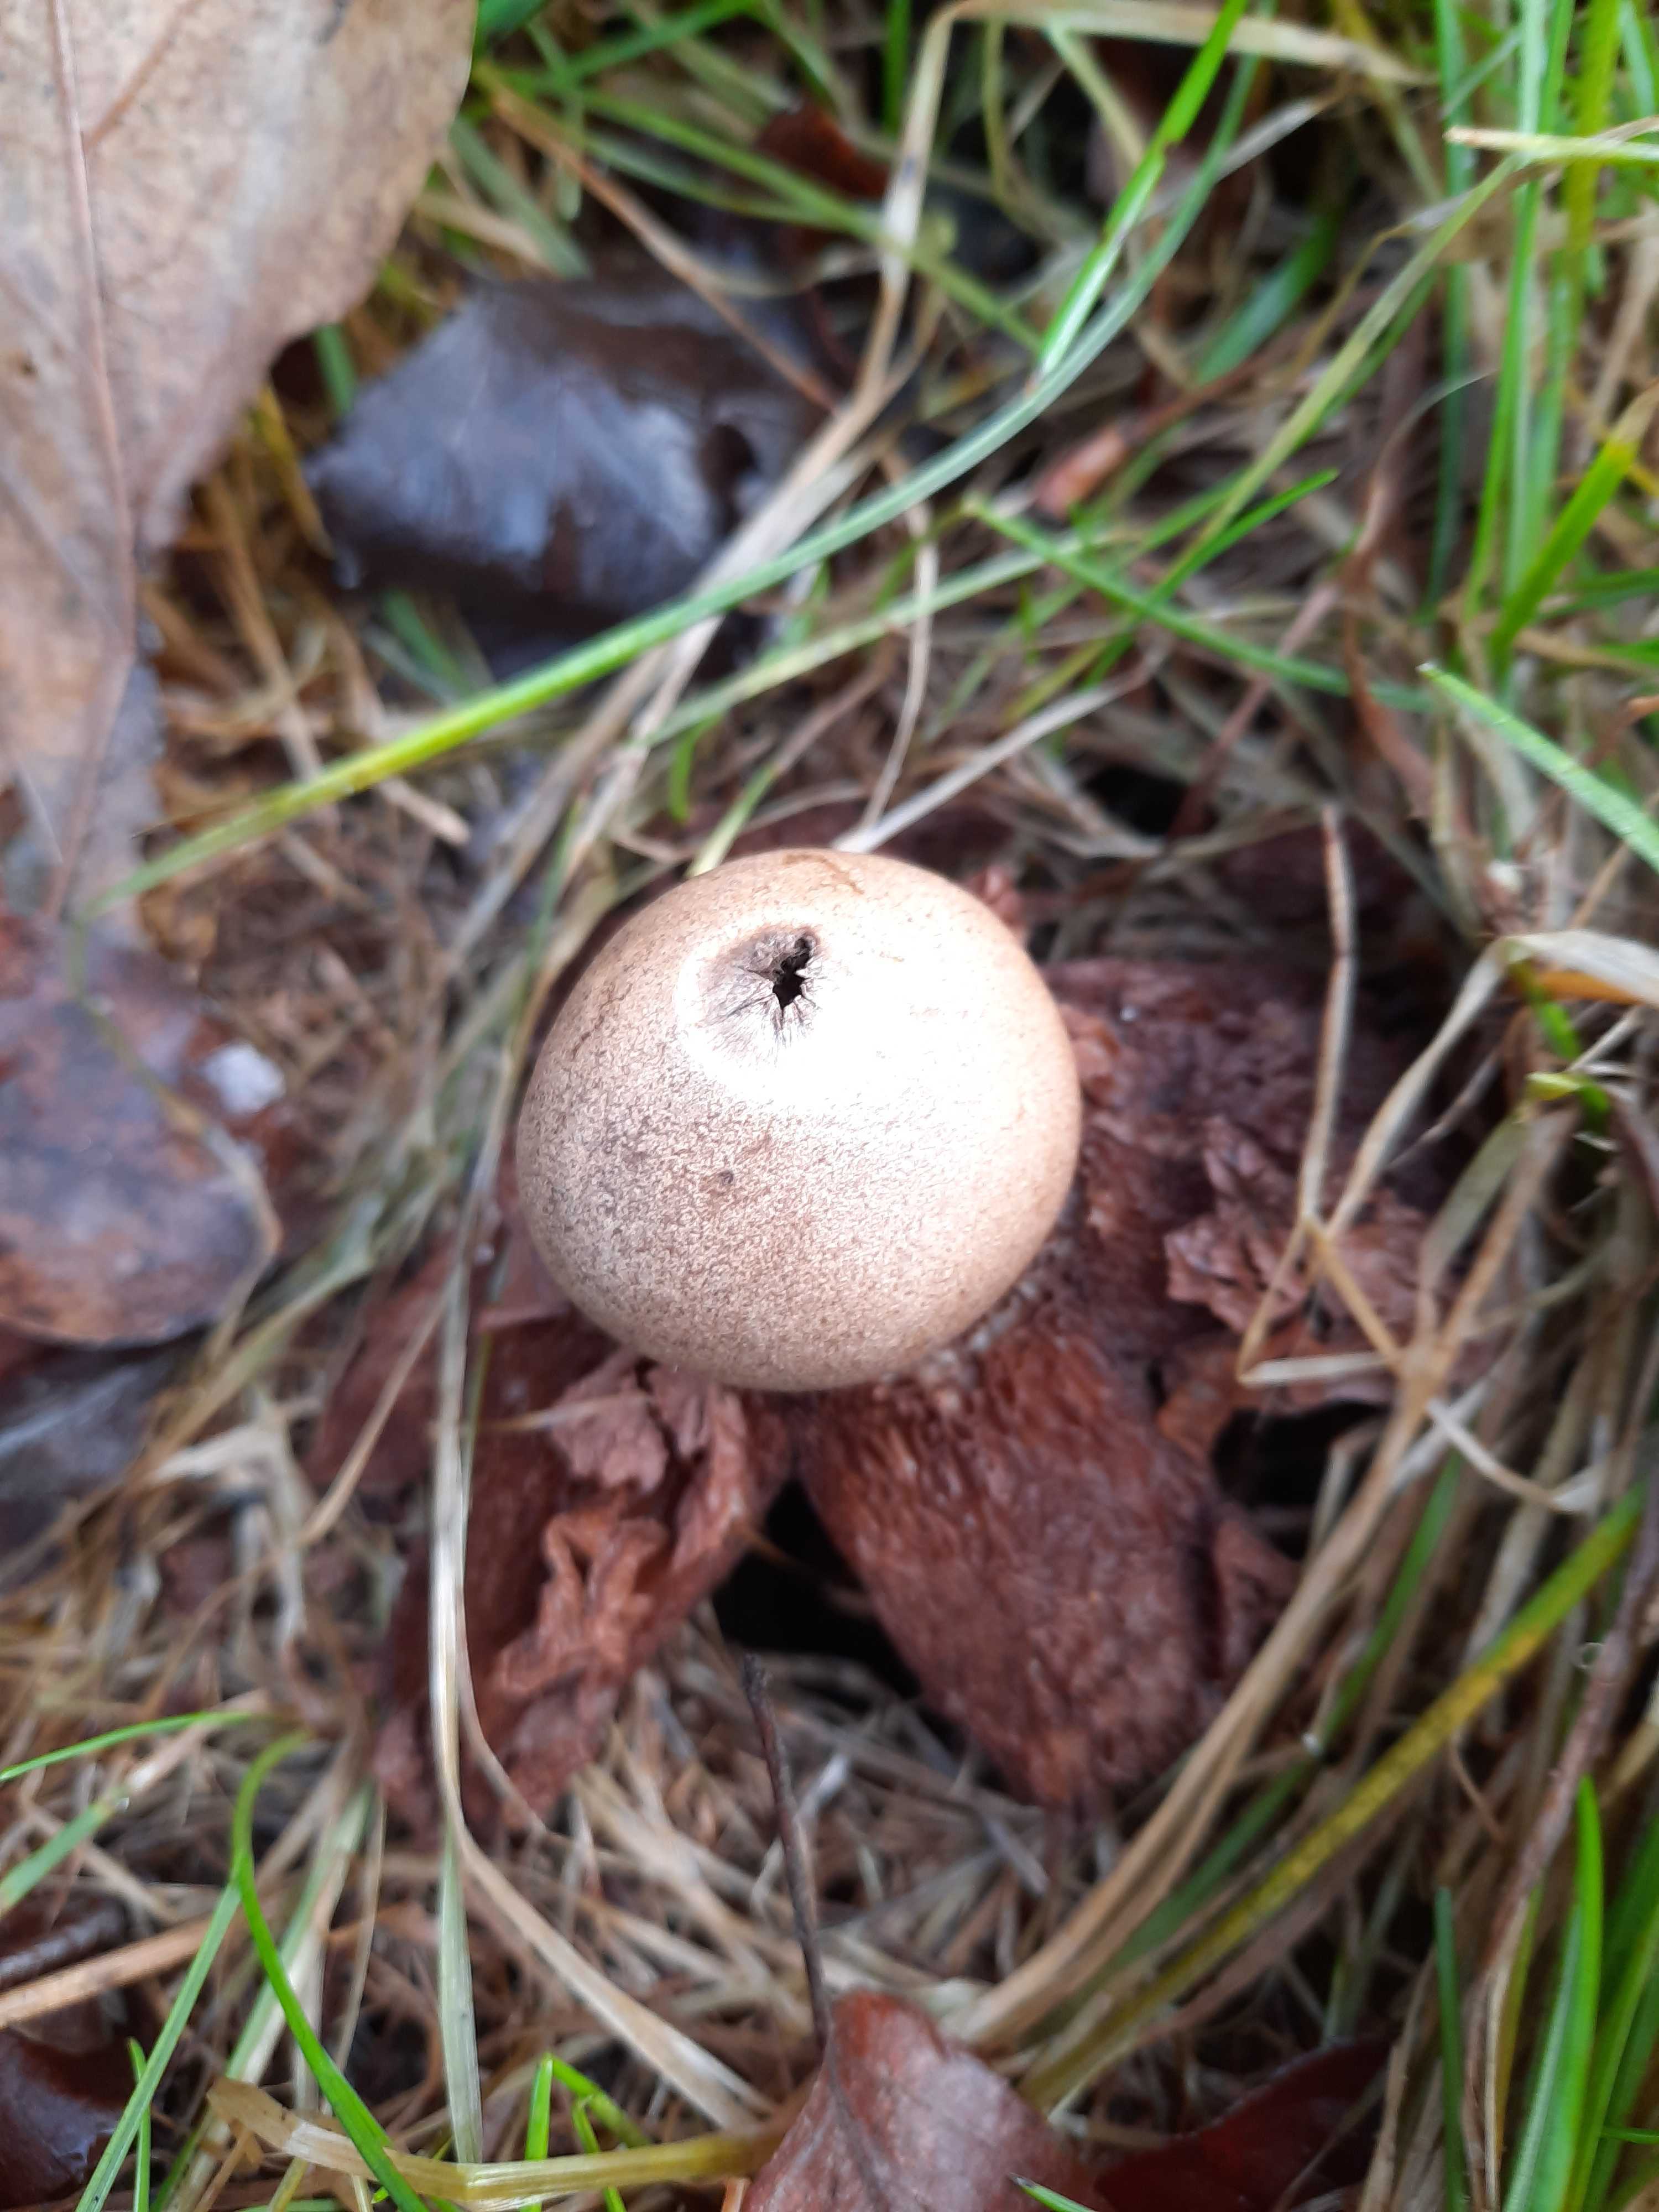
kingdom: Fungi
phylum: Basidiomycota
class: Agaricomycetes
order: Geastrales
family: Geastraceae
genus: Geastrum
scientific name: Geastrum michelianum
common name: kødet stjernebold
